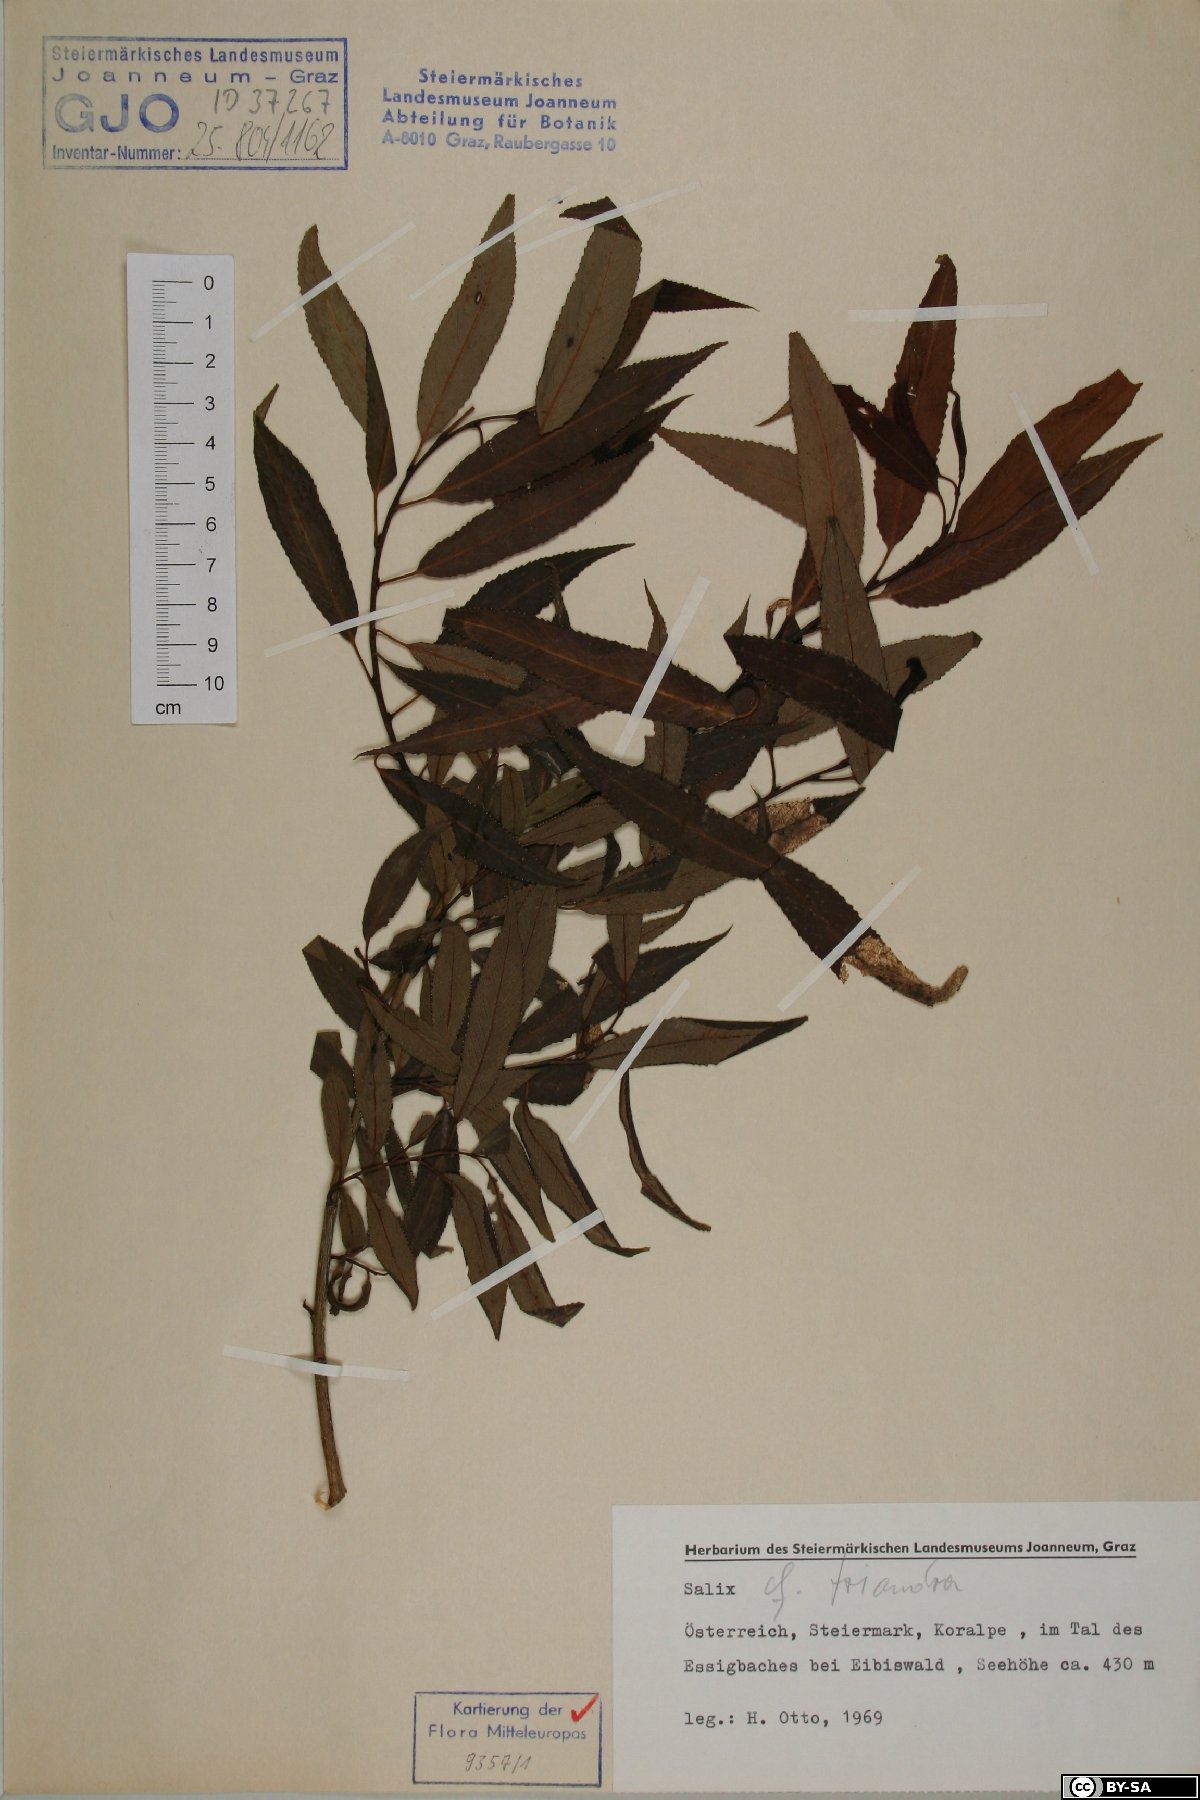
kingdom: Plantae
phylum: Tracheophyta
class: Magnoliopsida
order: Malpighiales
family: Salicaceae
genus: Salix
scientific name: Salix triandra
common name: Almond willow
